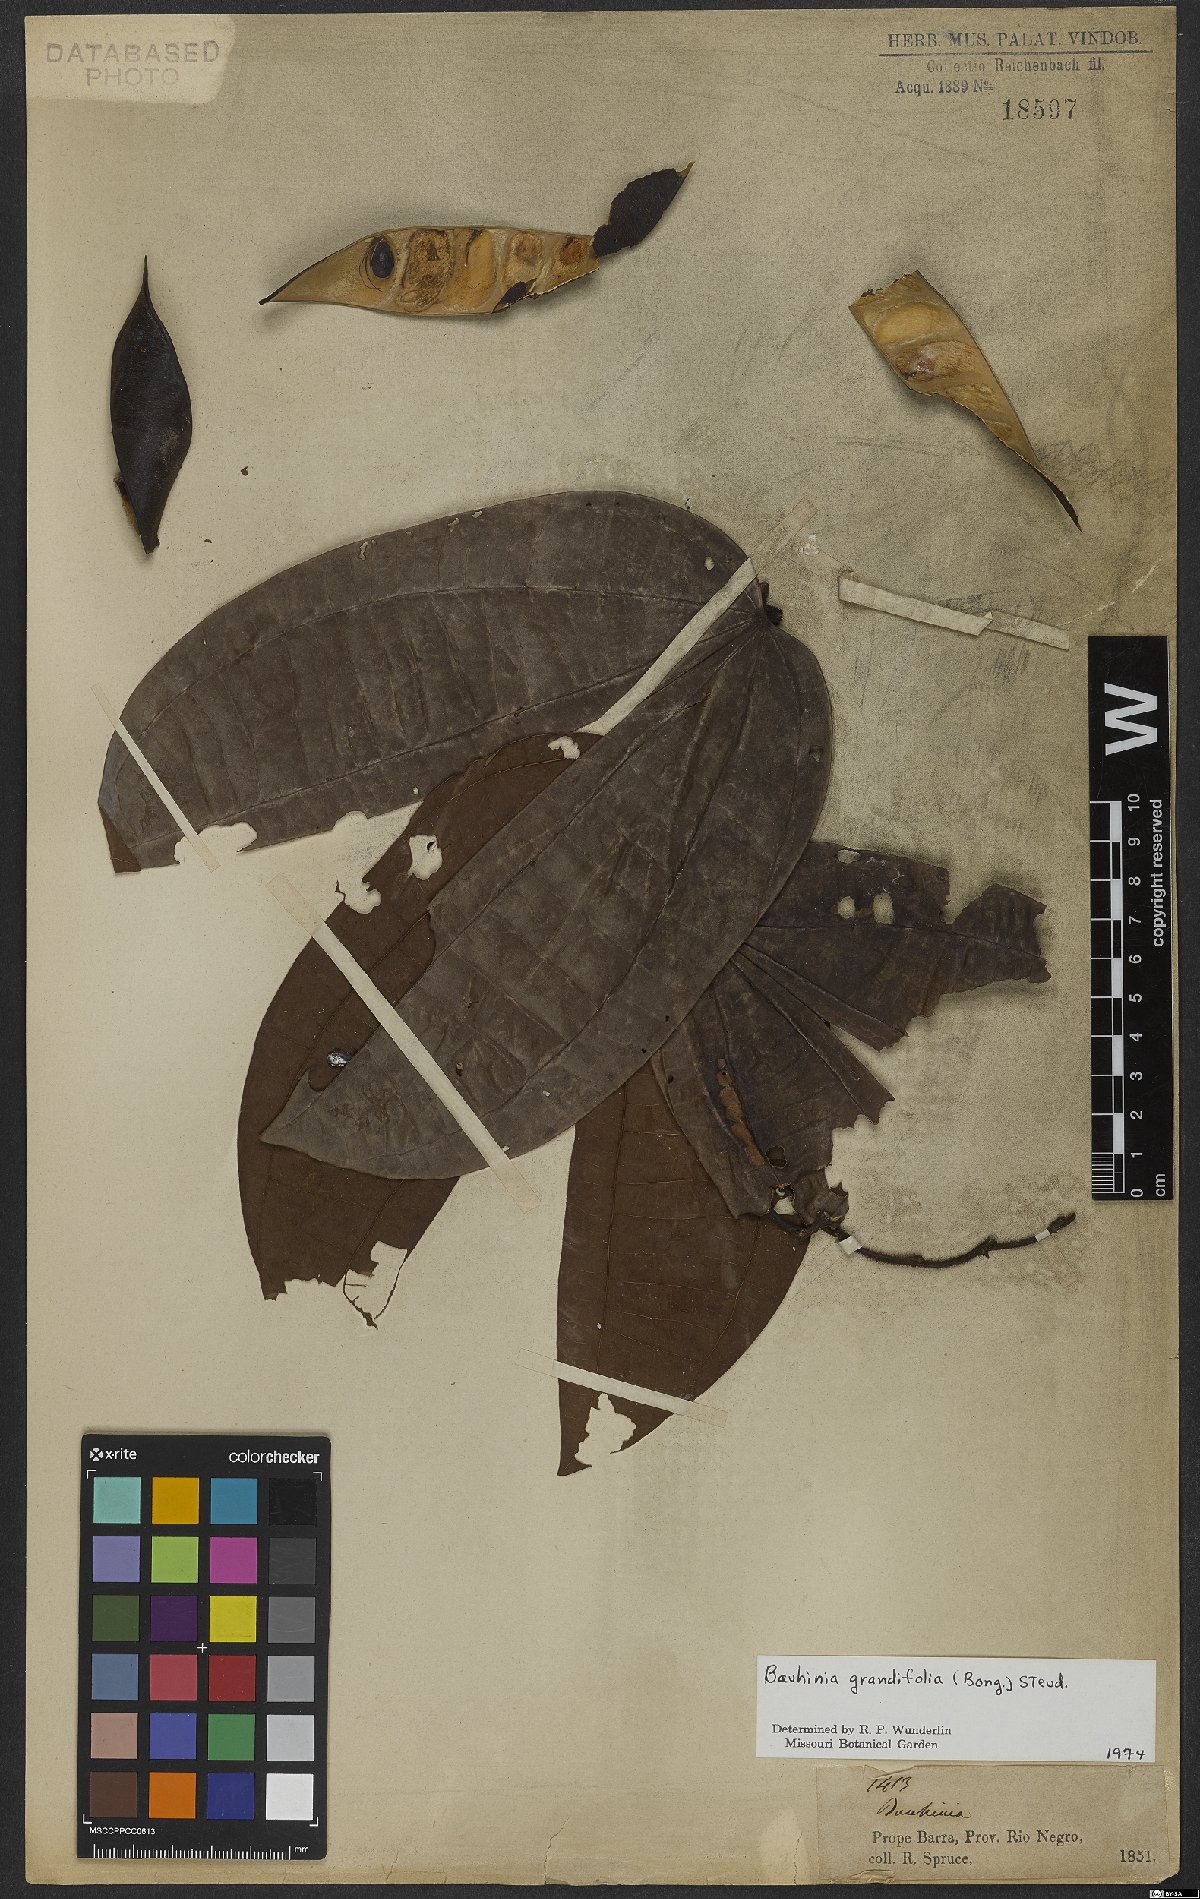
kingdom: Plantae
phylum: Tracheophyta
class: Magnoliopsida
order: Fabales
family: Fabaceae
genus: Bauhinia
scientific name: Bauhinia aculeata
